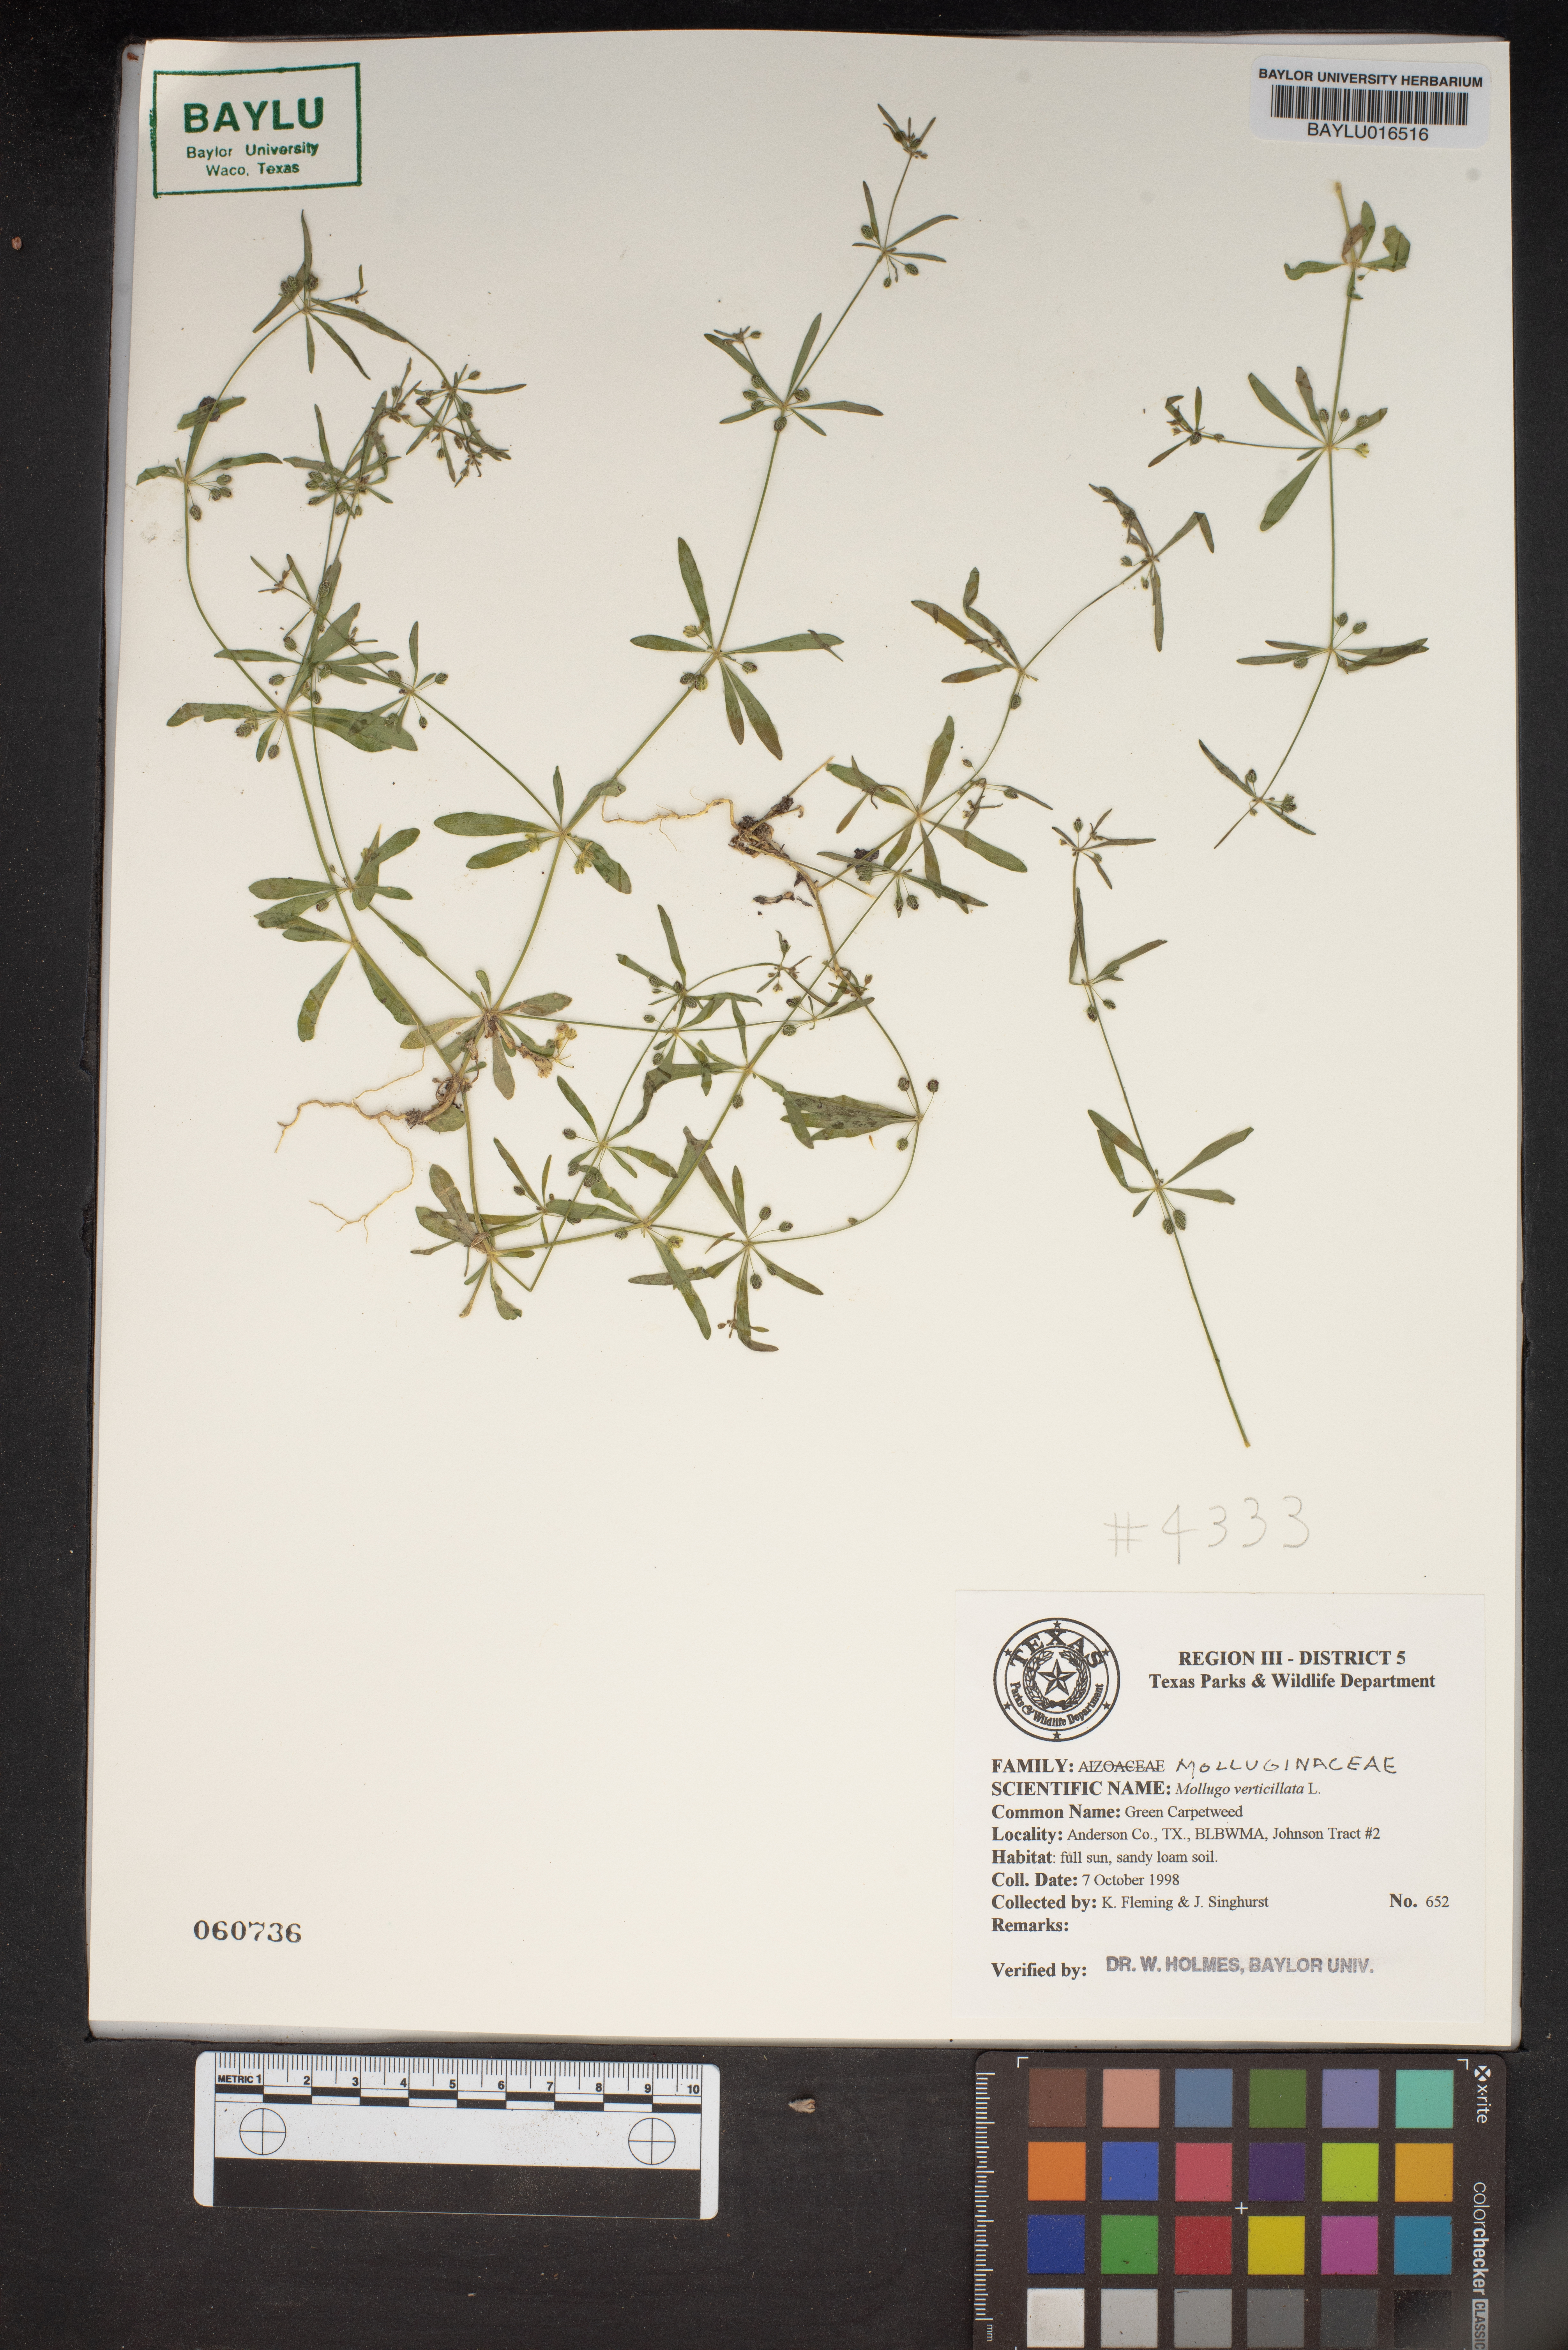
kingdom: Plantae
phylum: Tracheophyta
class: Magnoliopsida
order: Caryophyllales
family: Molluginaceae
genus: Mollugo
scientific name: Mollugo verticillata
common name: Green carpetweed
